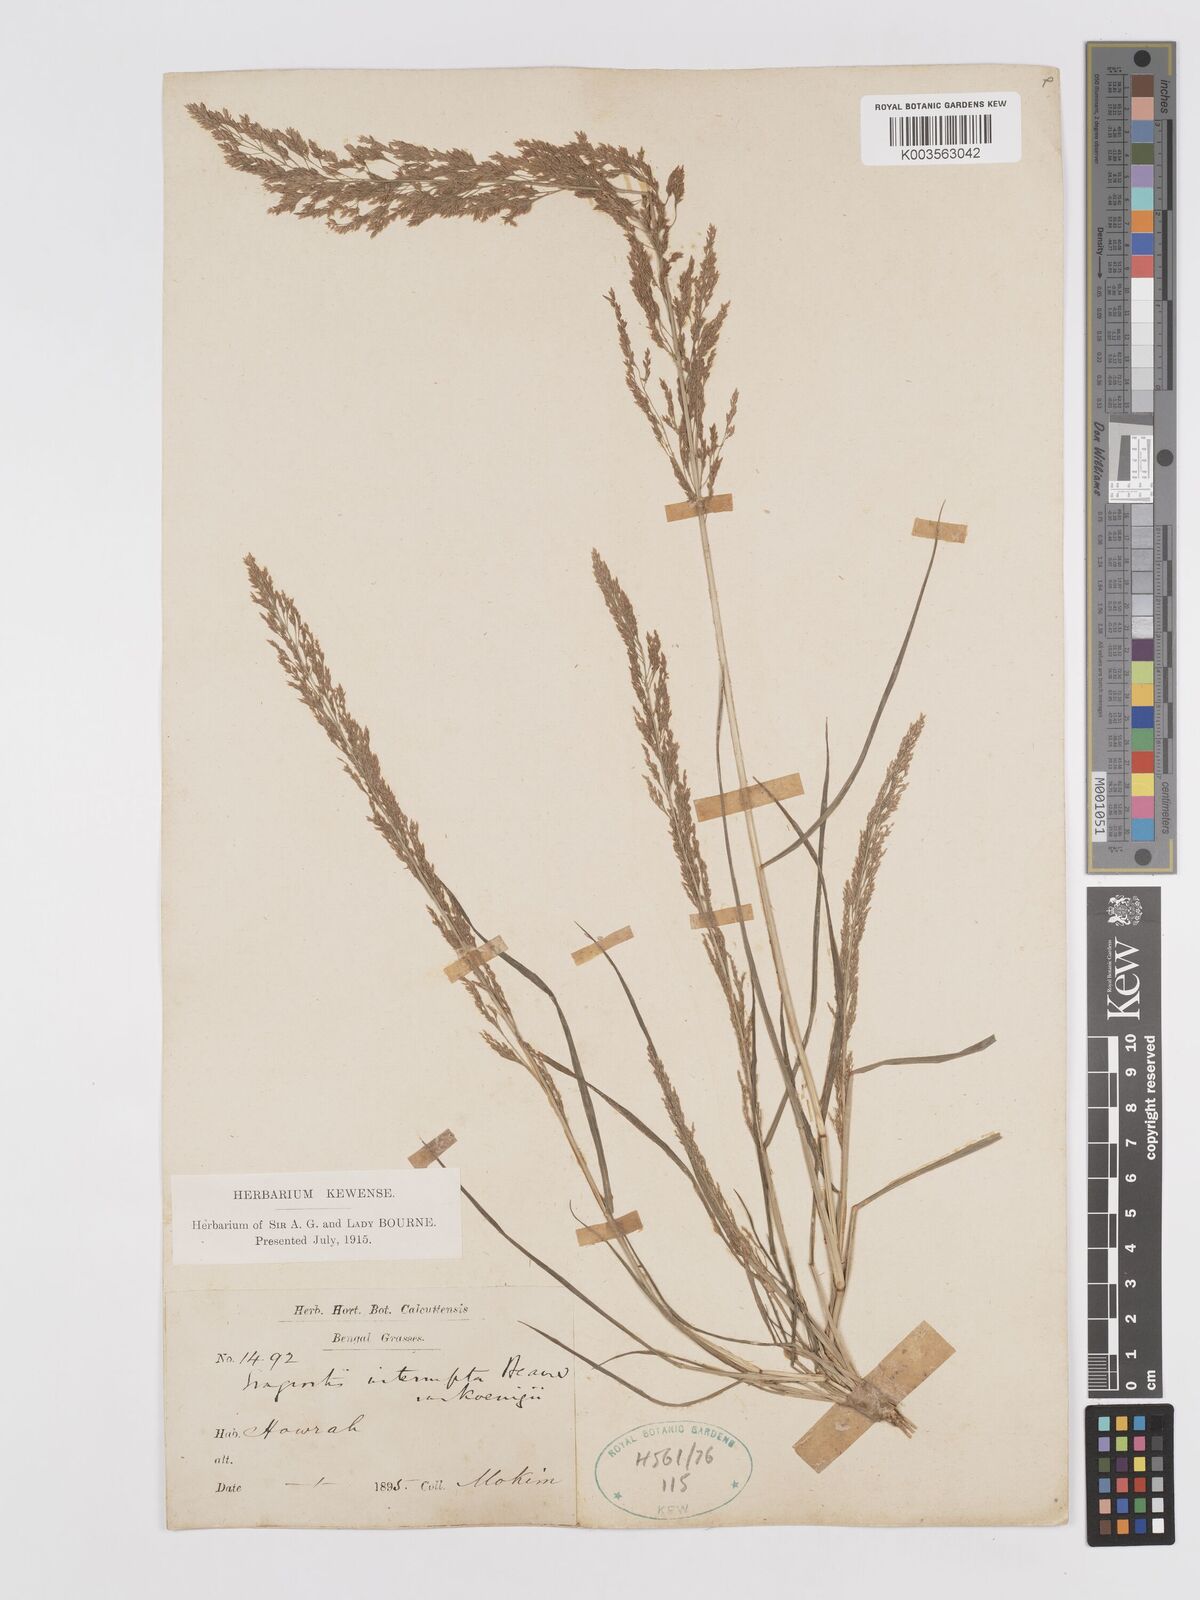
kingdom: Plantae
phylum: Tracheophyta
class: Liliopsida
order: Poales
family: Poaceae
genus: Eragrostis
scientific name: Eragrostis japonica
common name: Pond lovegrass
